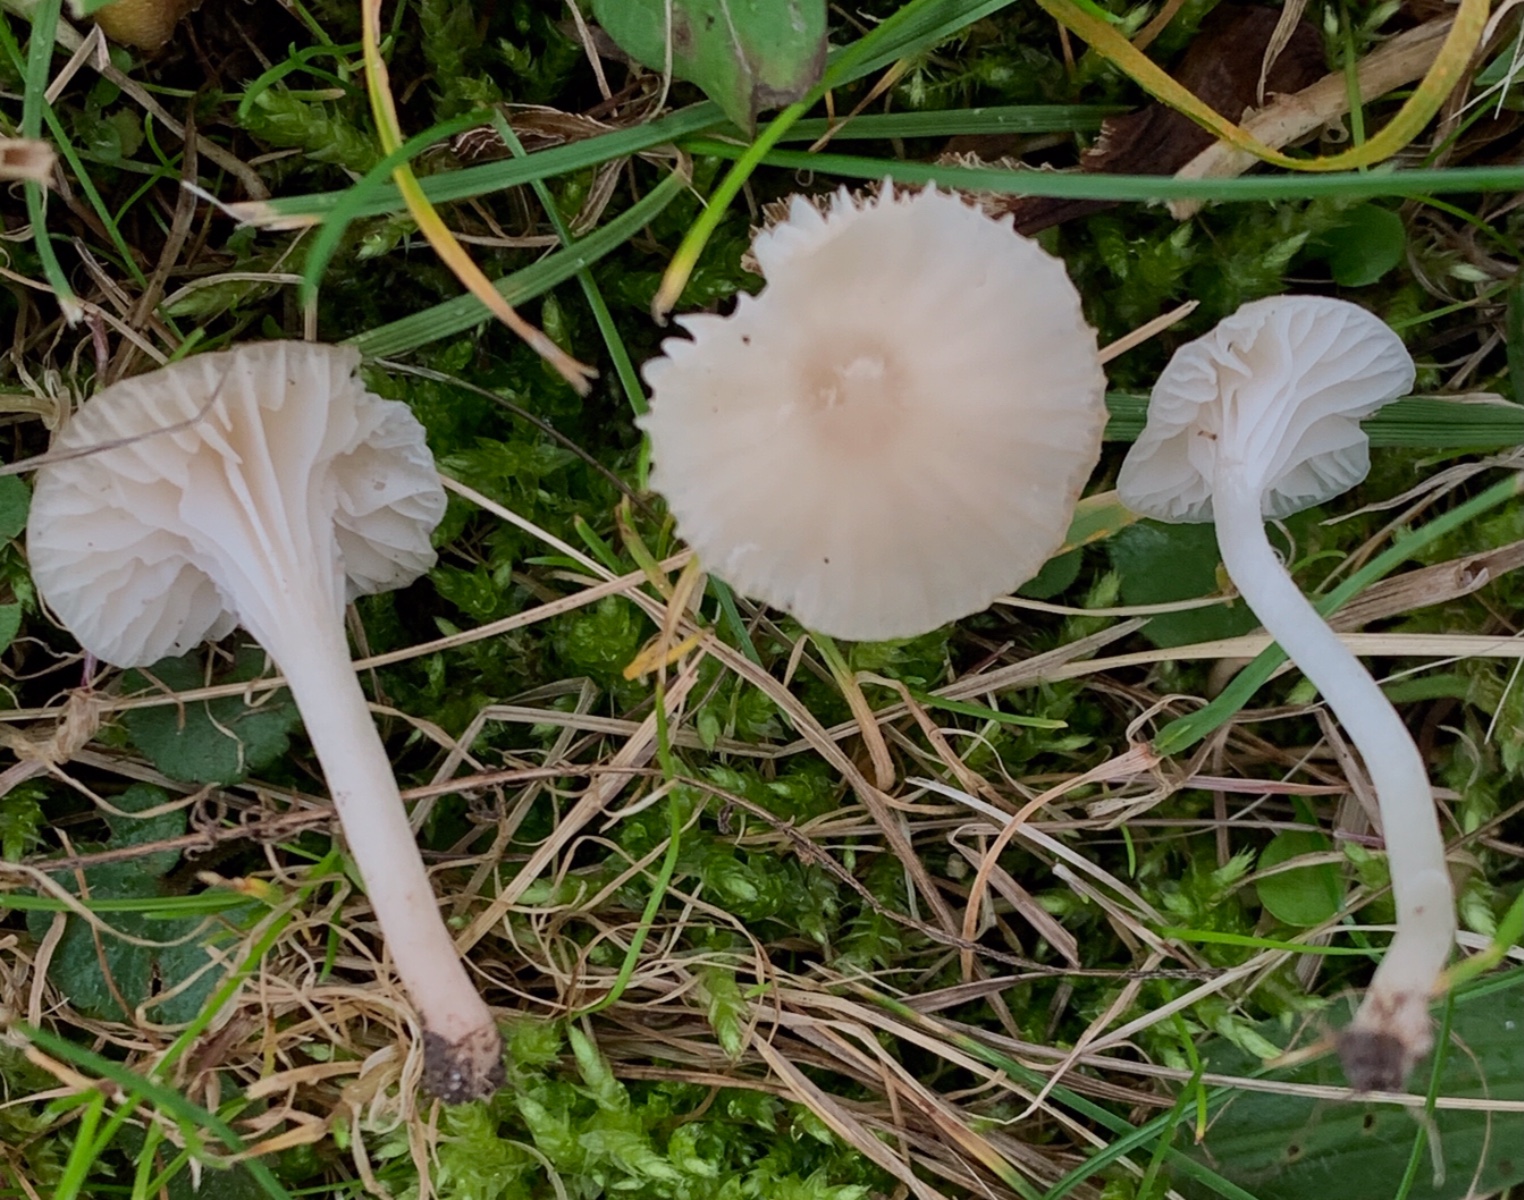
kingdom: Fungi
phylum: Basidiomycota
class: Agaricomycetes
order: Agaricales
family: Hygrophoraceae
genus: Cuphophyllus
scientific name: Cuphophyllus virgineus
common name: snehvid vokshat
